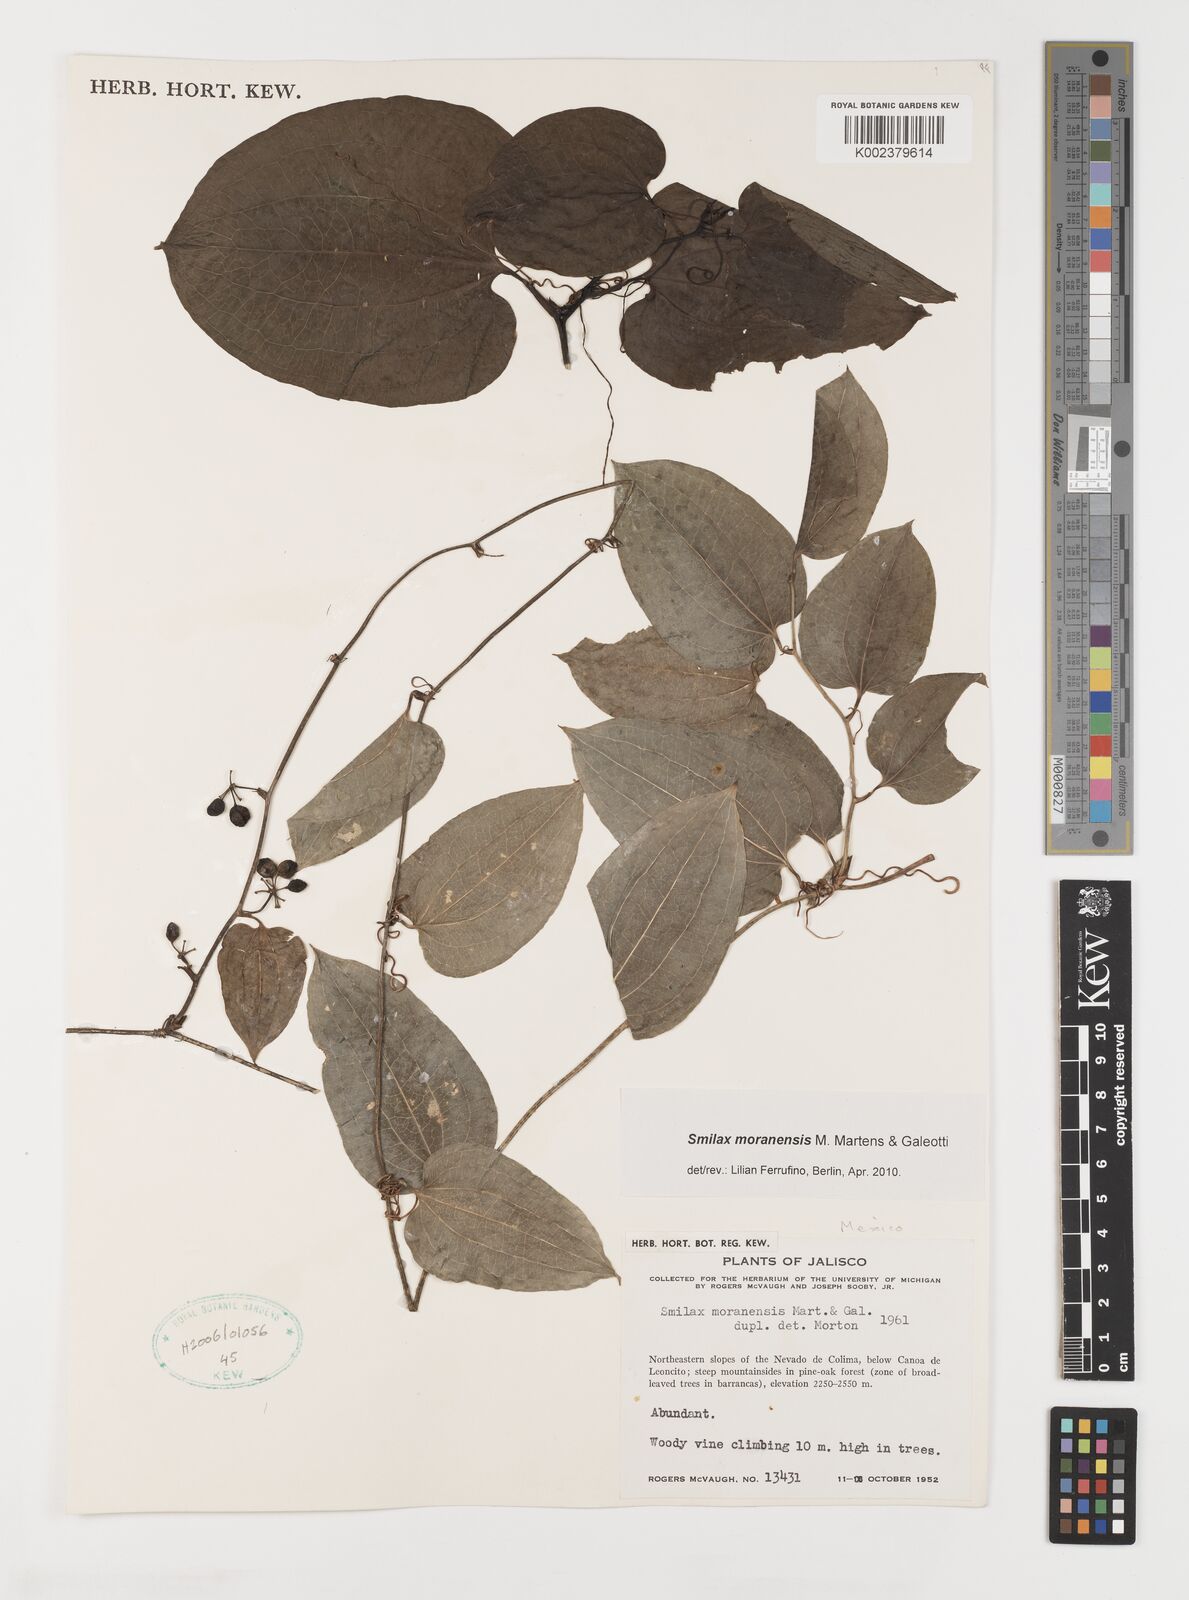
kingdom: Plantae
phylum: Tracheophyta
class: Liliopsida
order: Liliales
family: Smilacaceae
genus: Smilax
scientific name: Smilax moranensis
